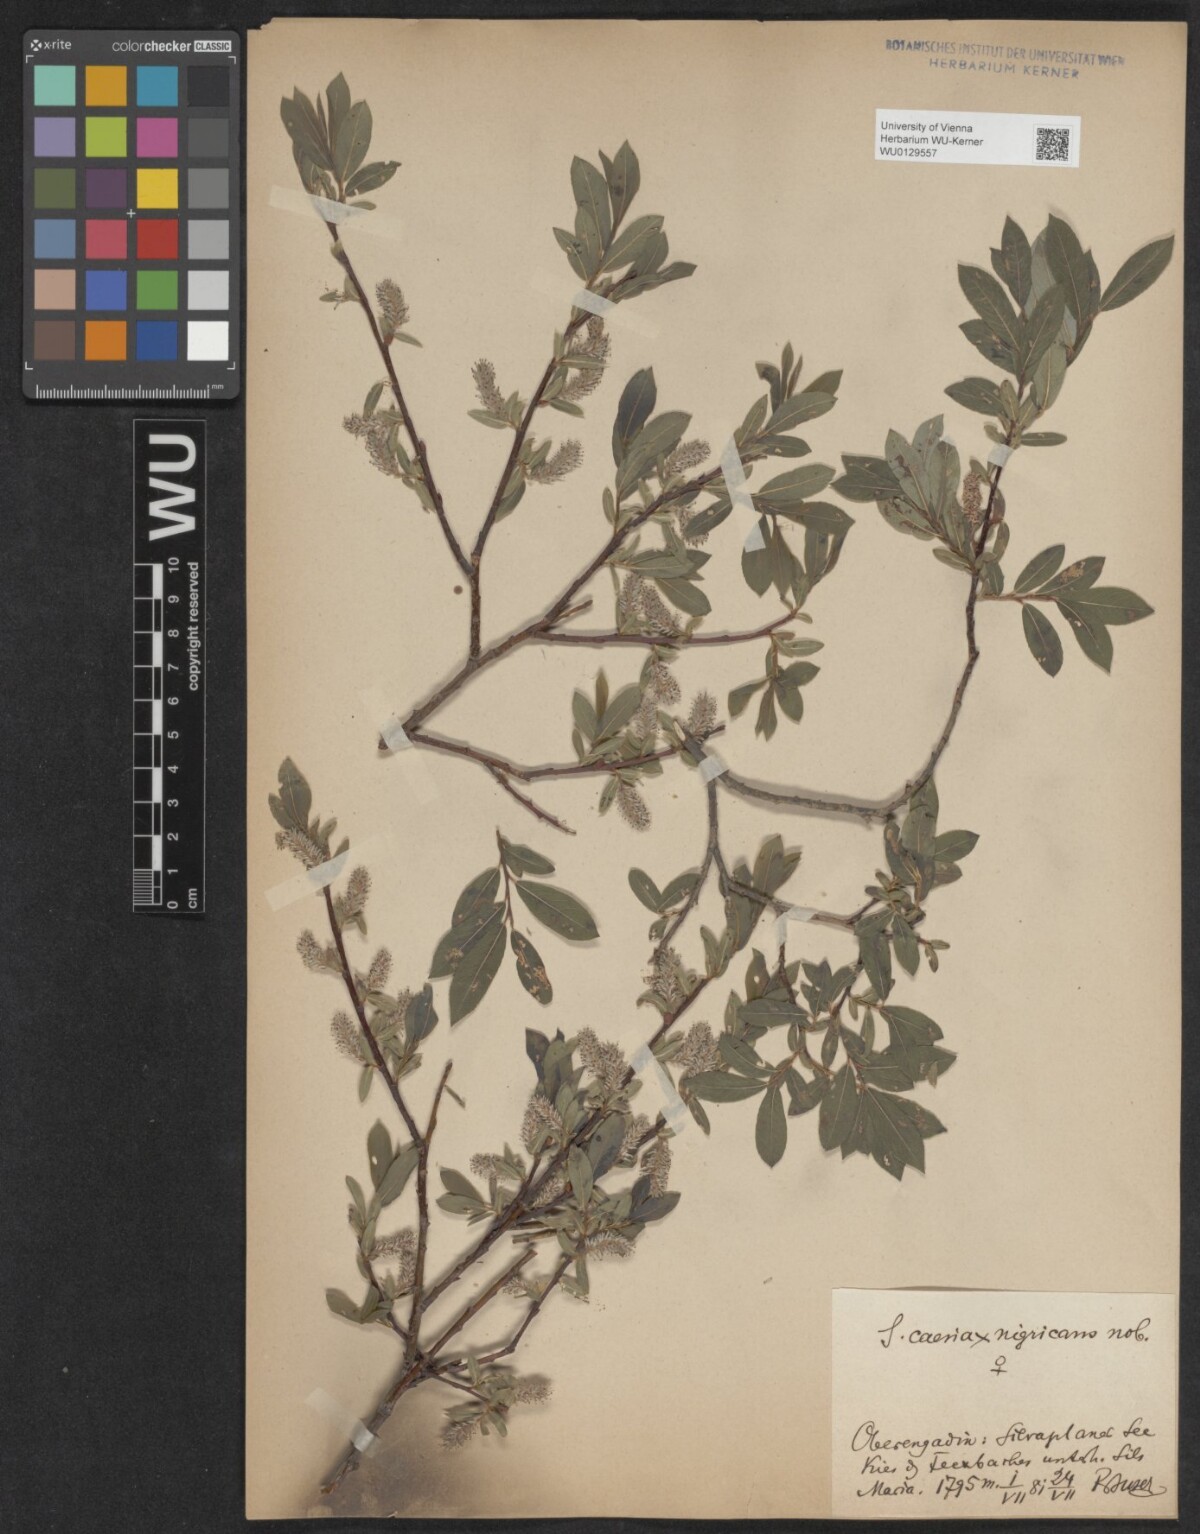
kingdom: Plantae
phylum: Tracheophyta
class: Magnoliopsida
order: Malpighiales
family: Salicaceae
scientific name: Salicaceae
